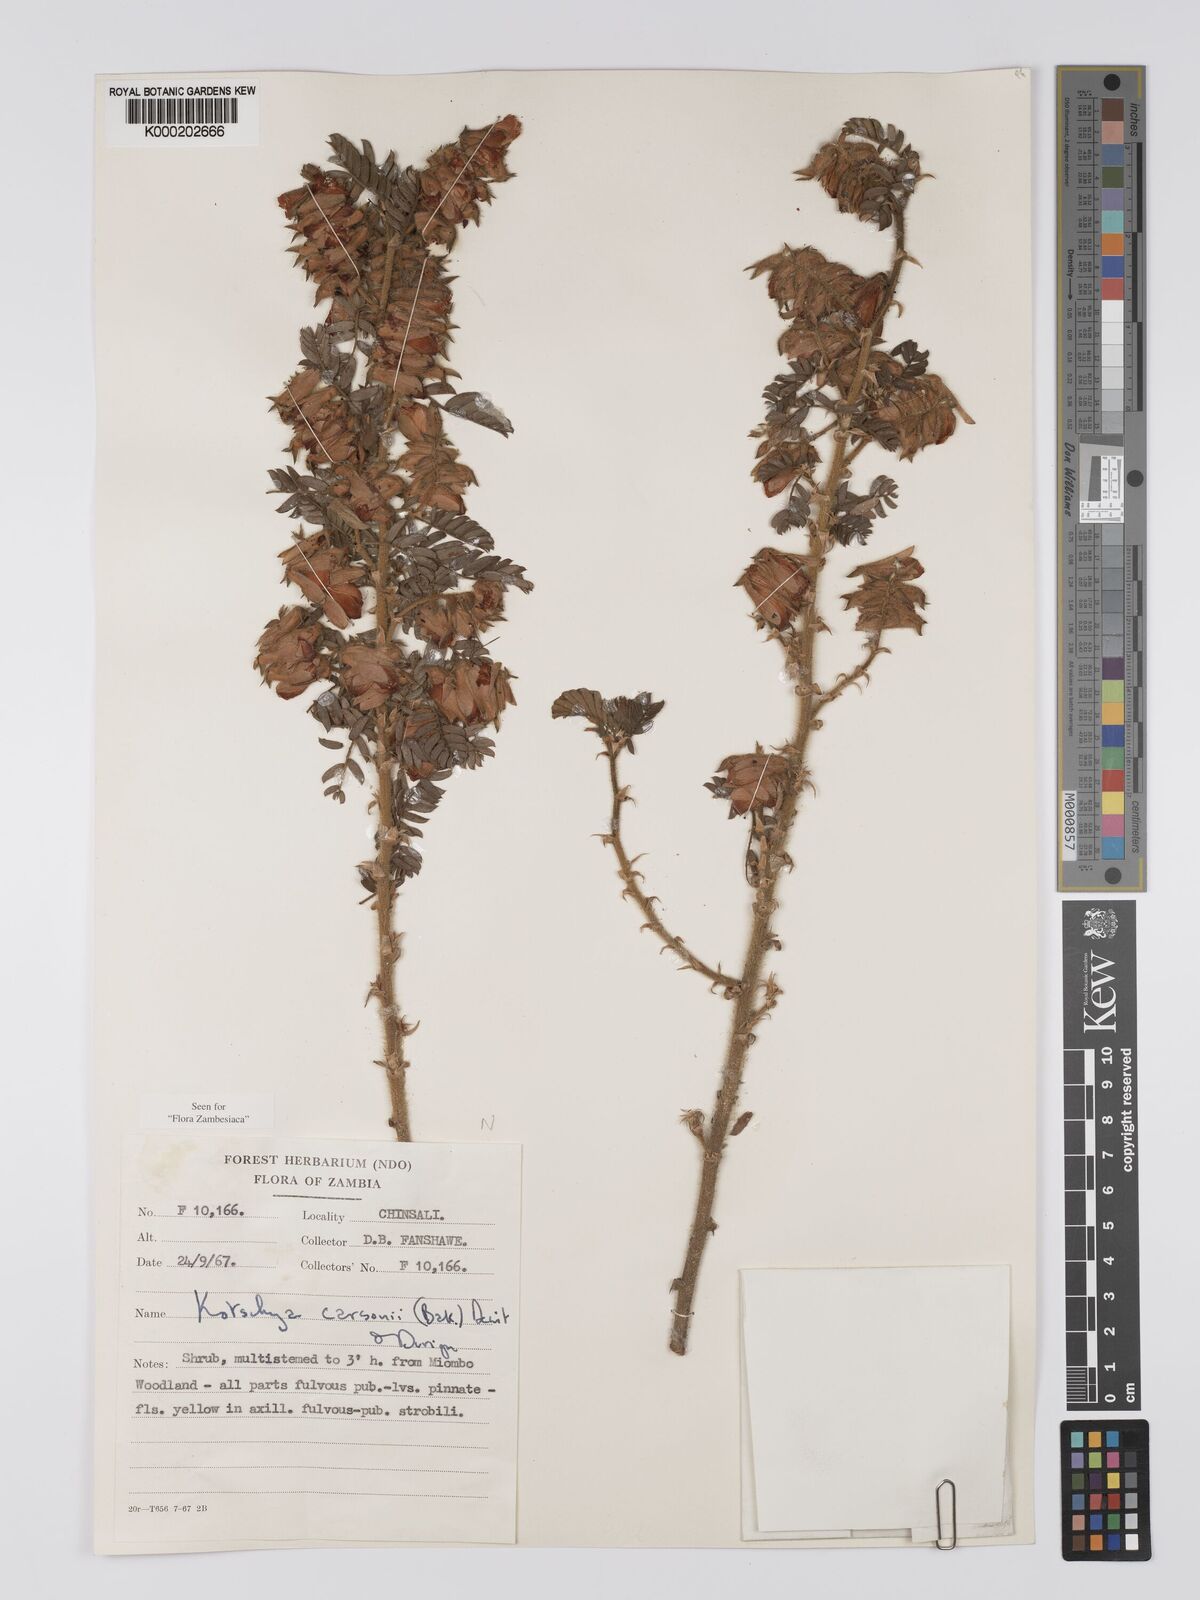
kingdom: Plantae
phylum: Tracheophyta
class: Magnoliopsida
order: Fabales
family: Fabaceae
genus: Kotschya
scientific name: Kotschya carsonii
